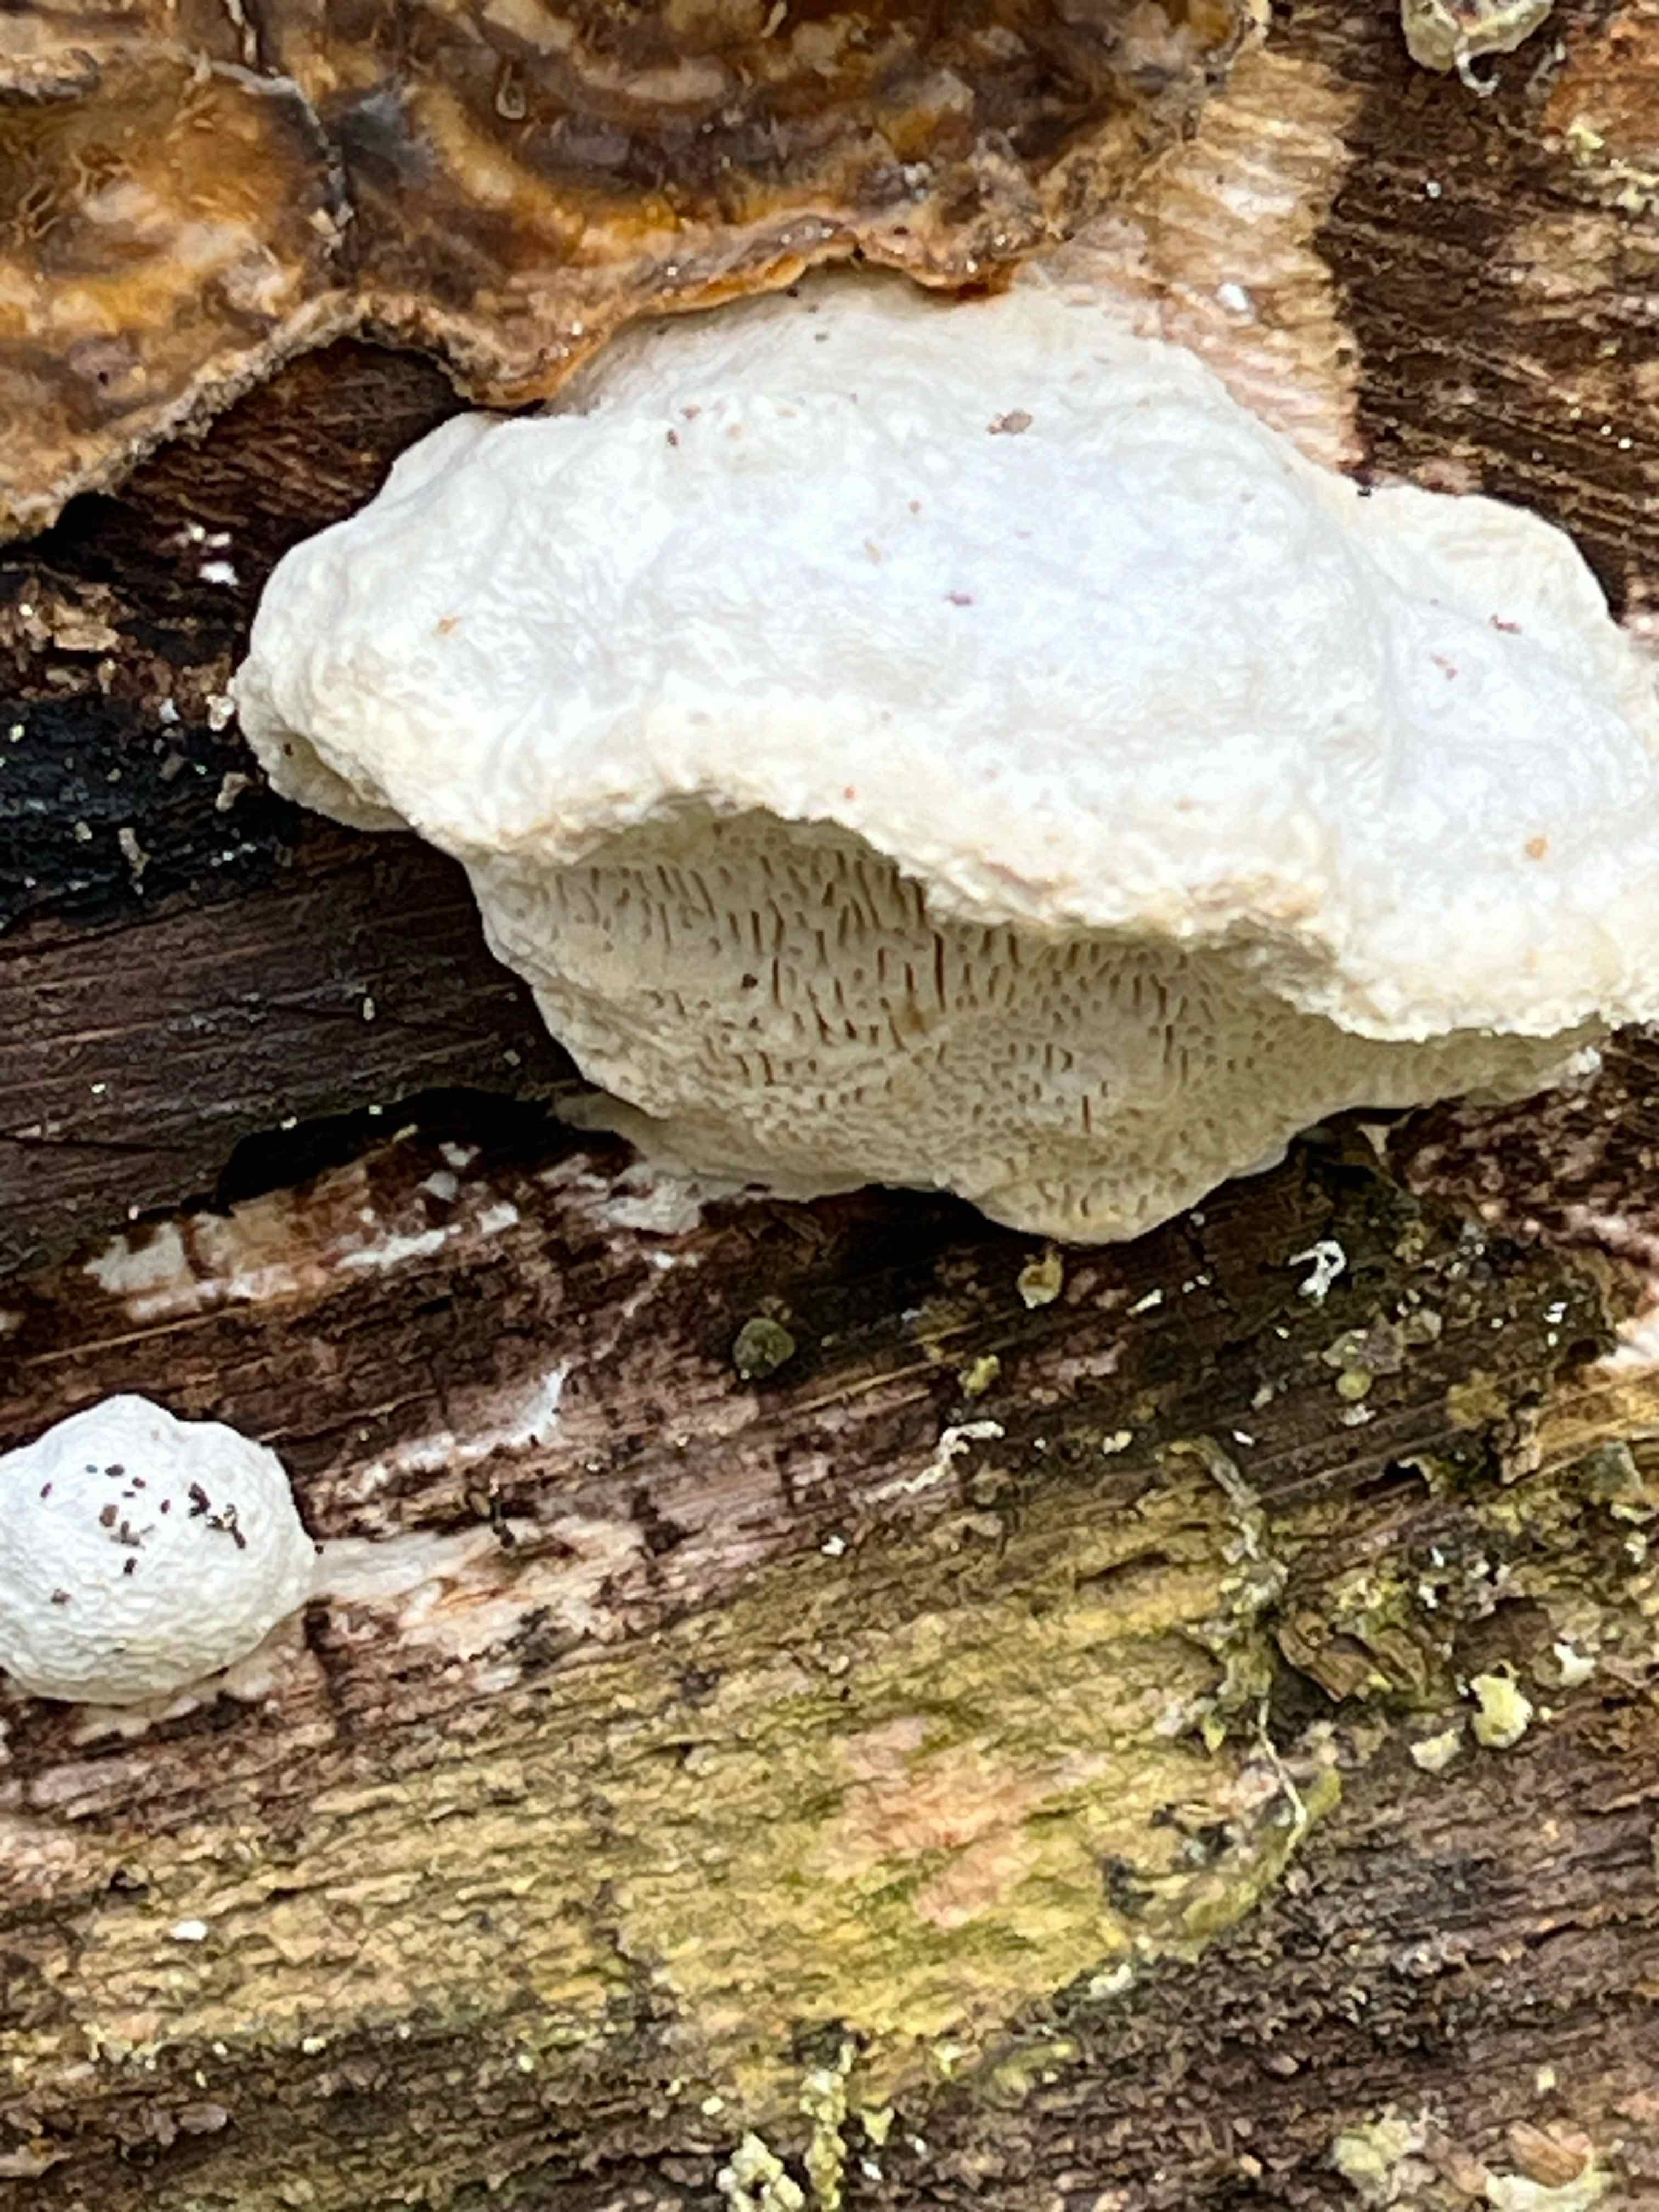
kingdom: Fungi
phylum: Basidiomycota
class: Agaricomycetes
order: Polyporales
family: Polyporaceae
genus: Trametes
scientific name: Trametes gibbosa
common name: puklet læderporesvamp
